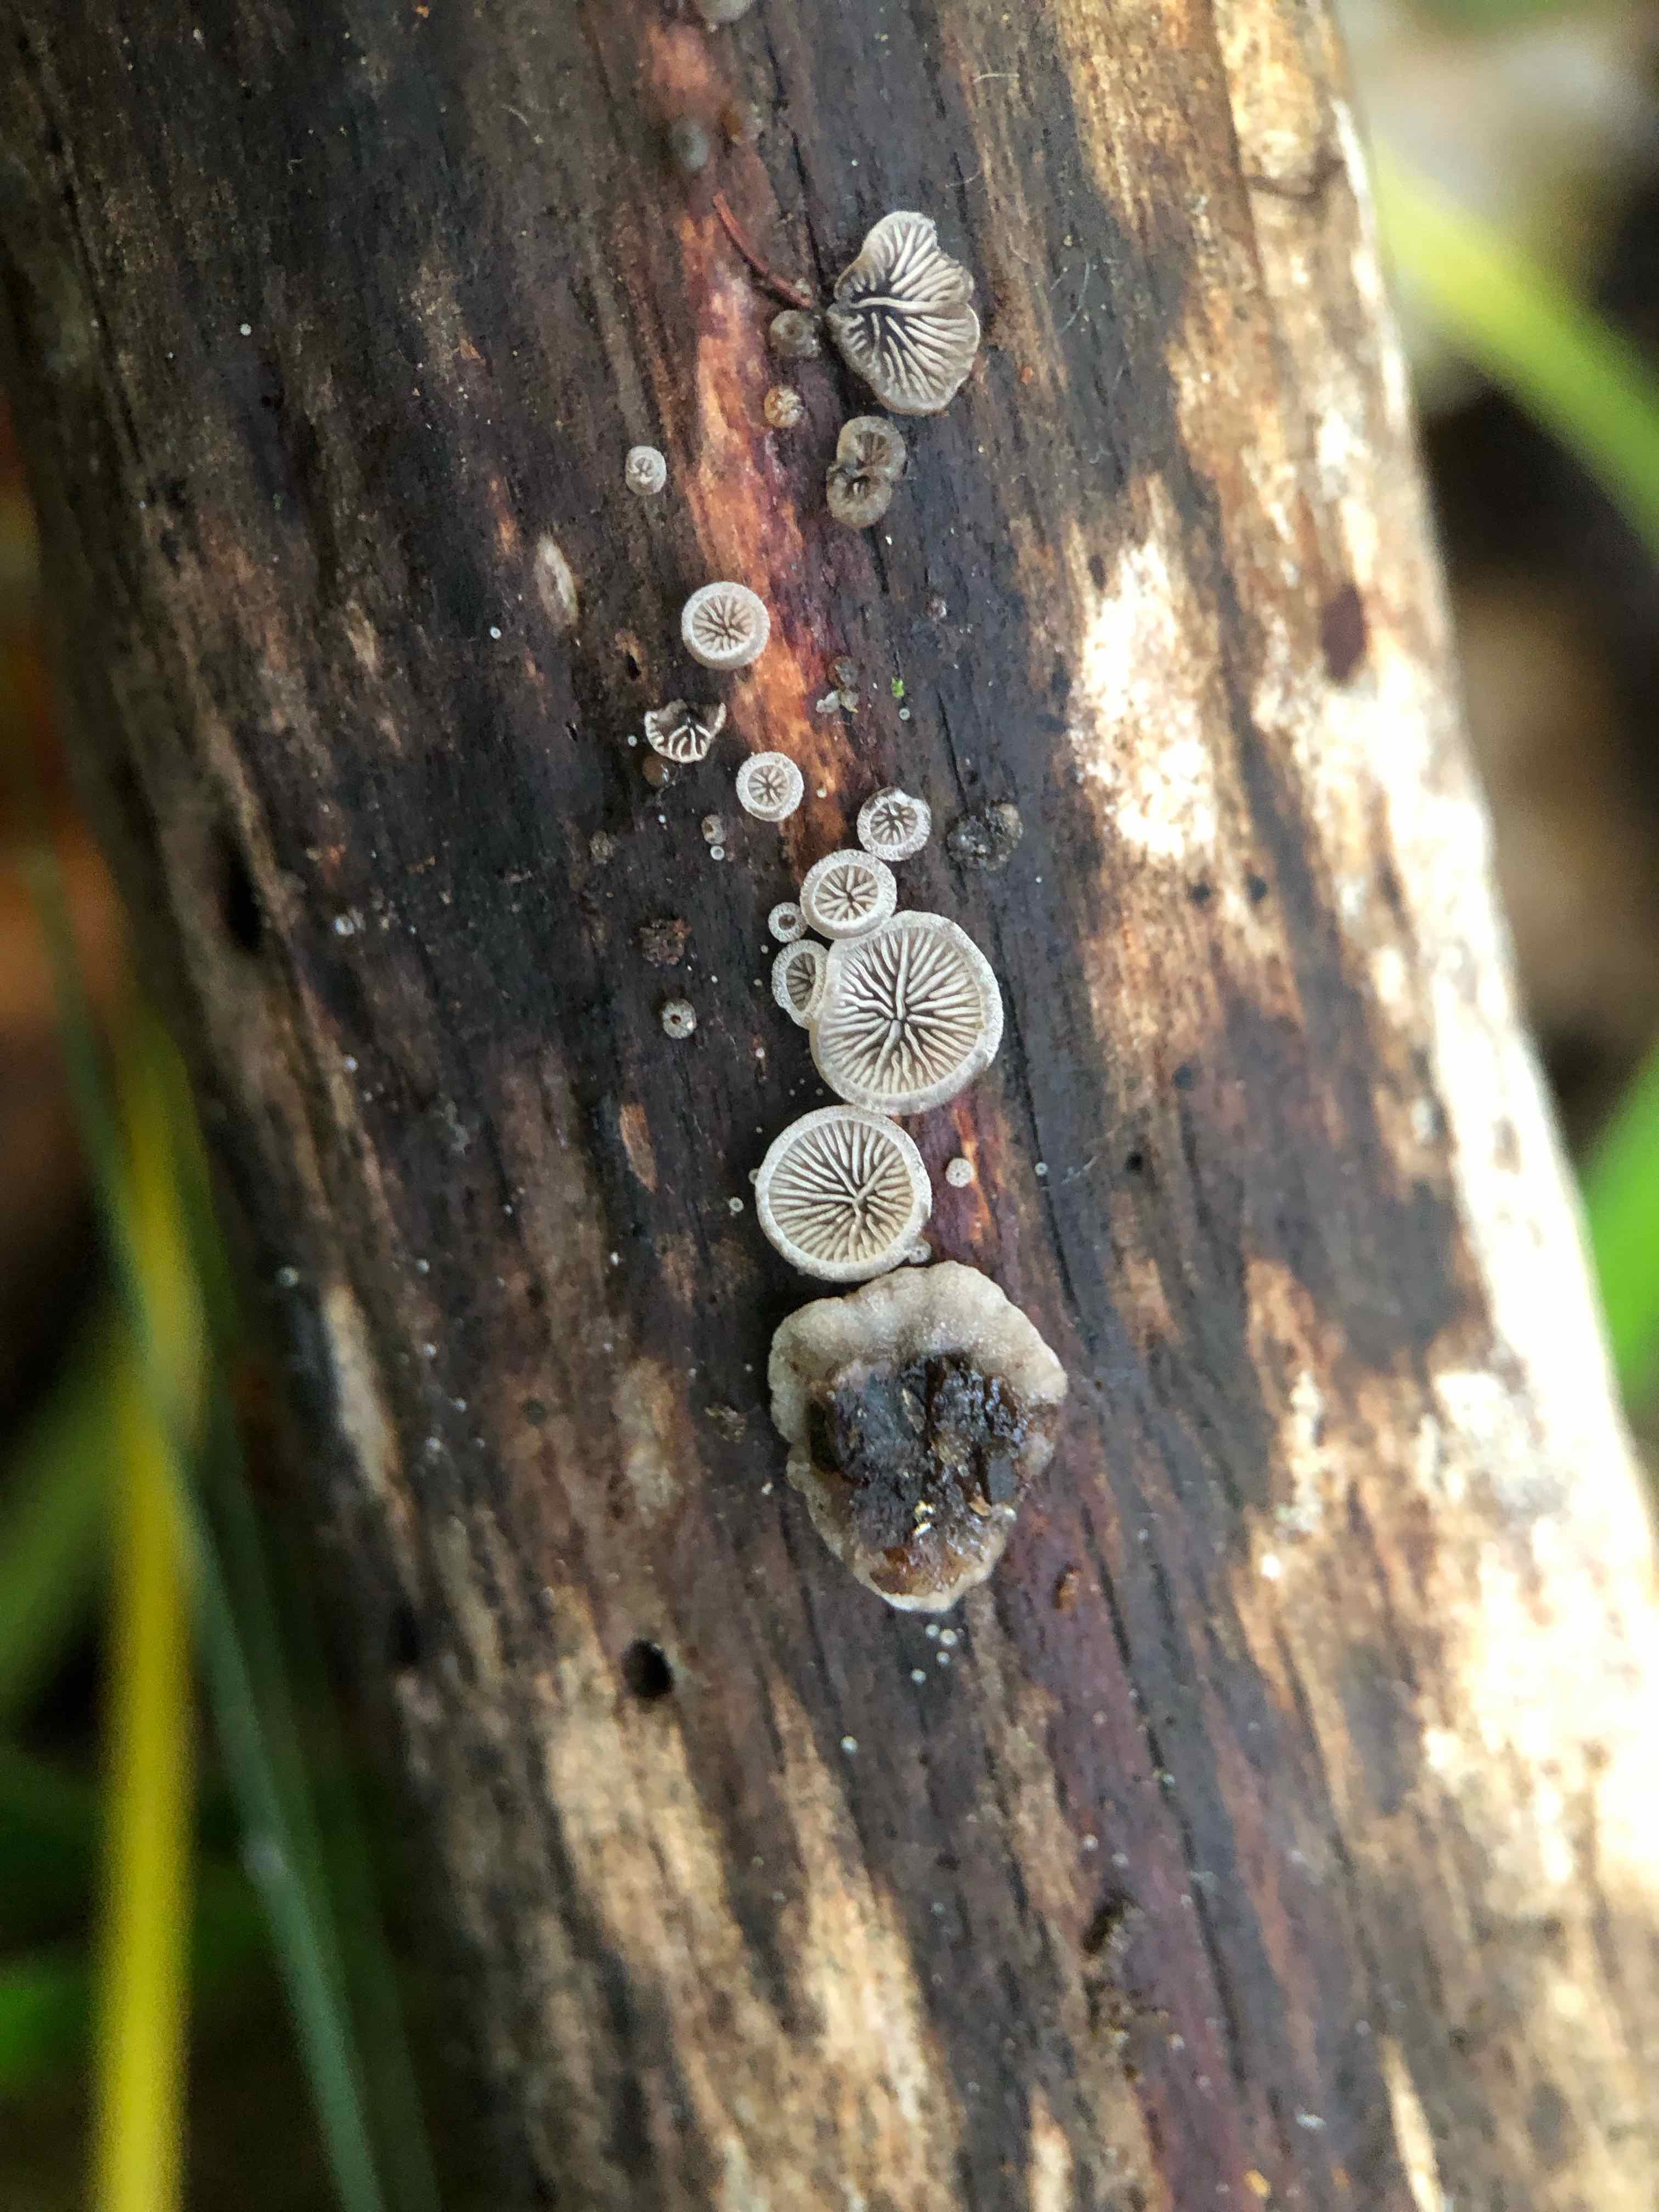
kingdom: Fungi
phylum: Basidiomycota
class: Agaricomycetes
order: Agaricales
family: Pleurotaceae
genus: Resupinatus
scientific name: Resupinatus trichotis
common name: mørkfiltet barkhat
